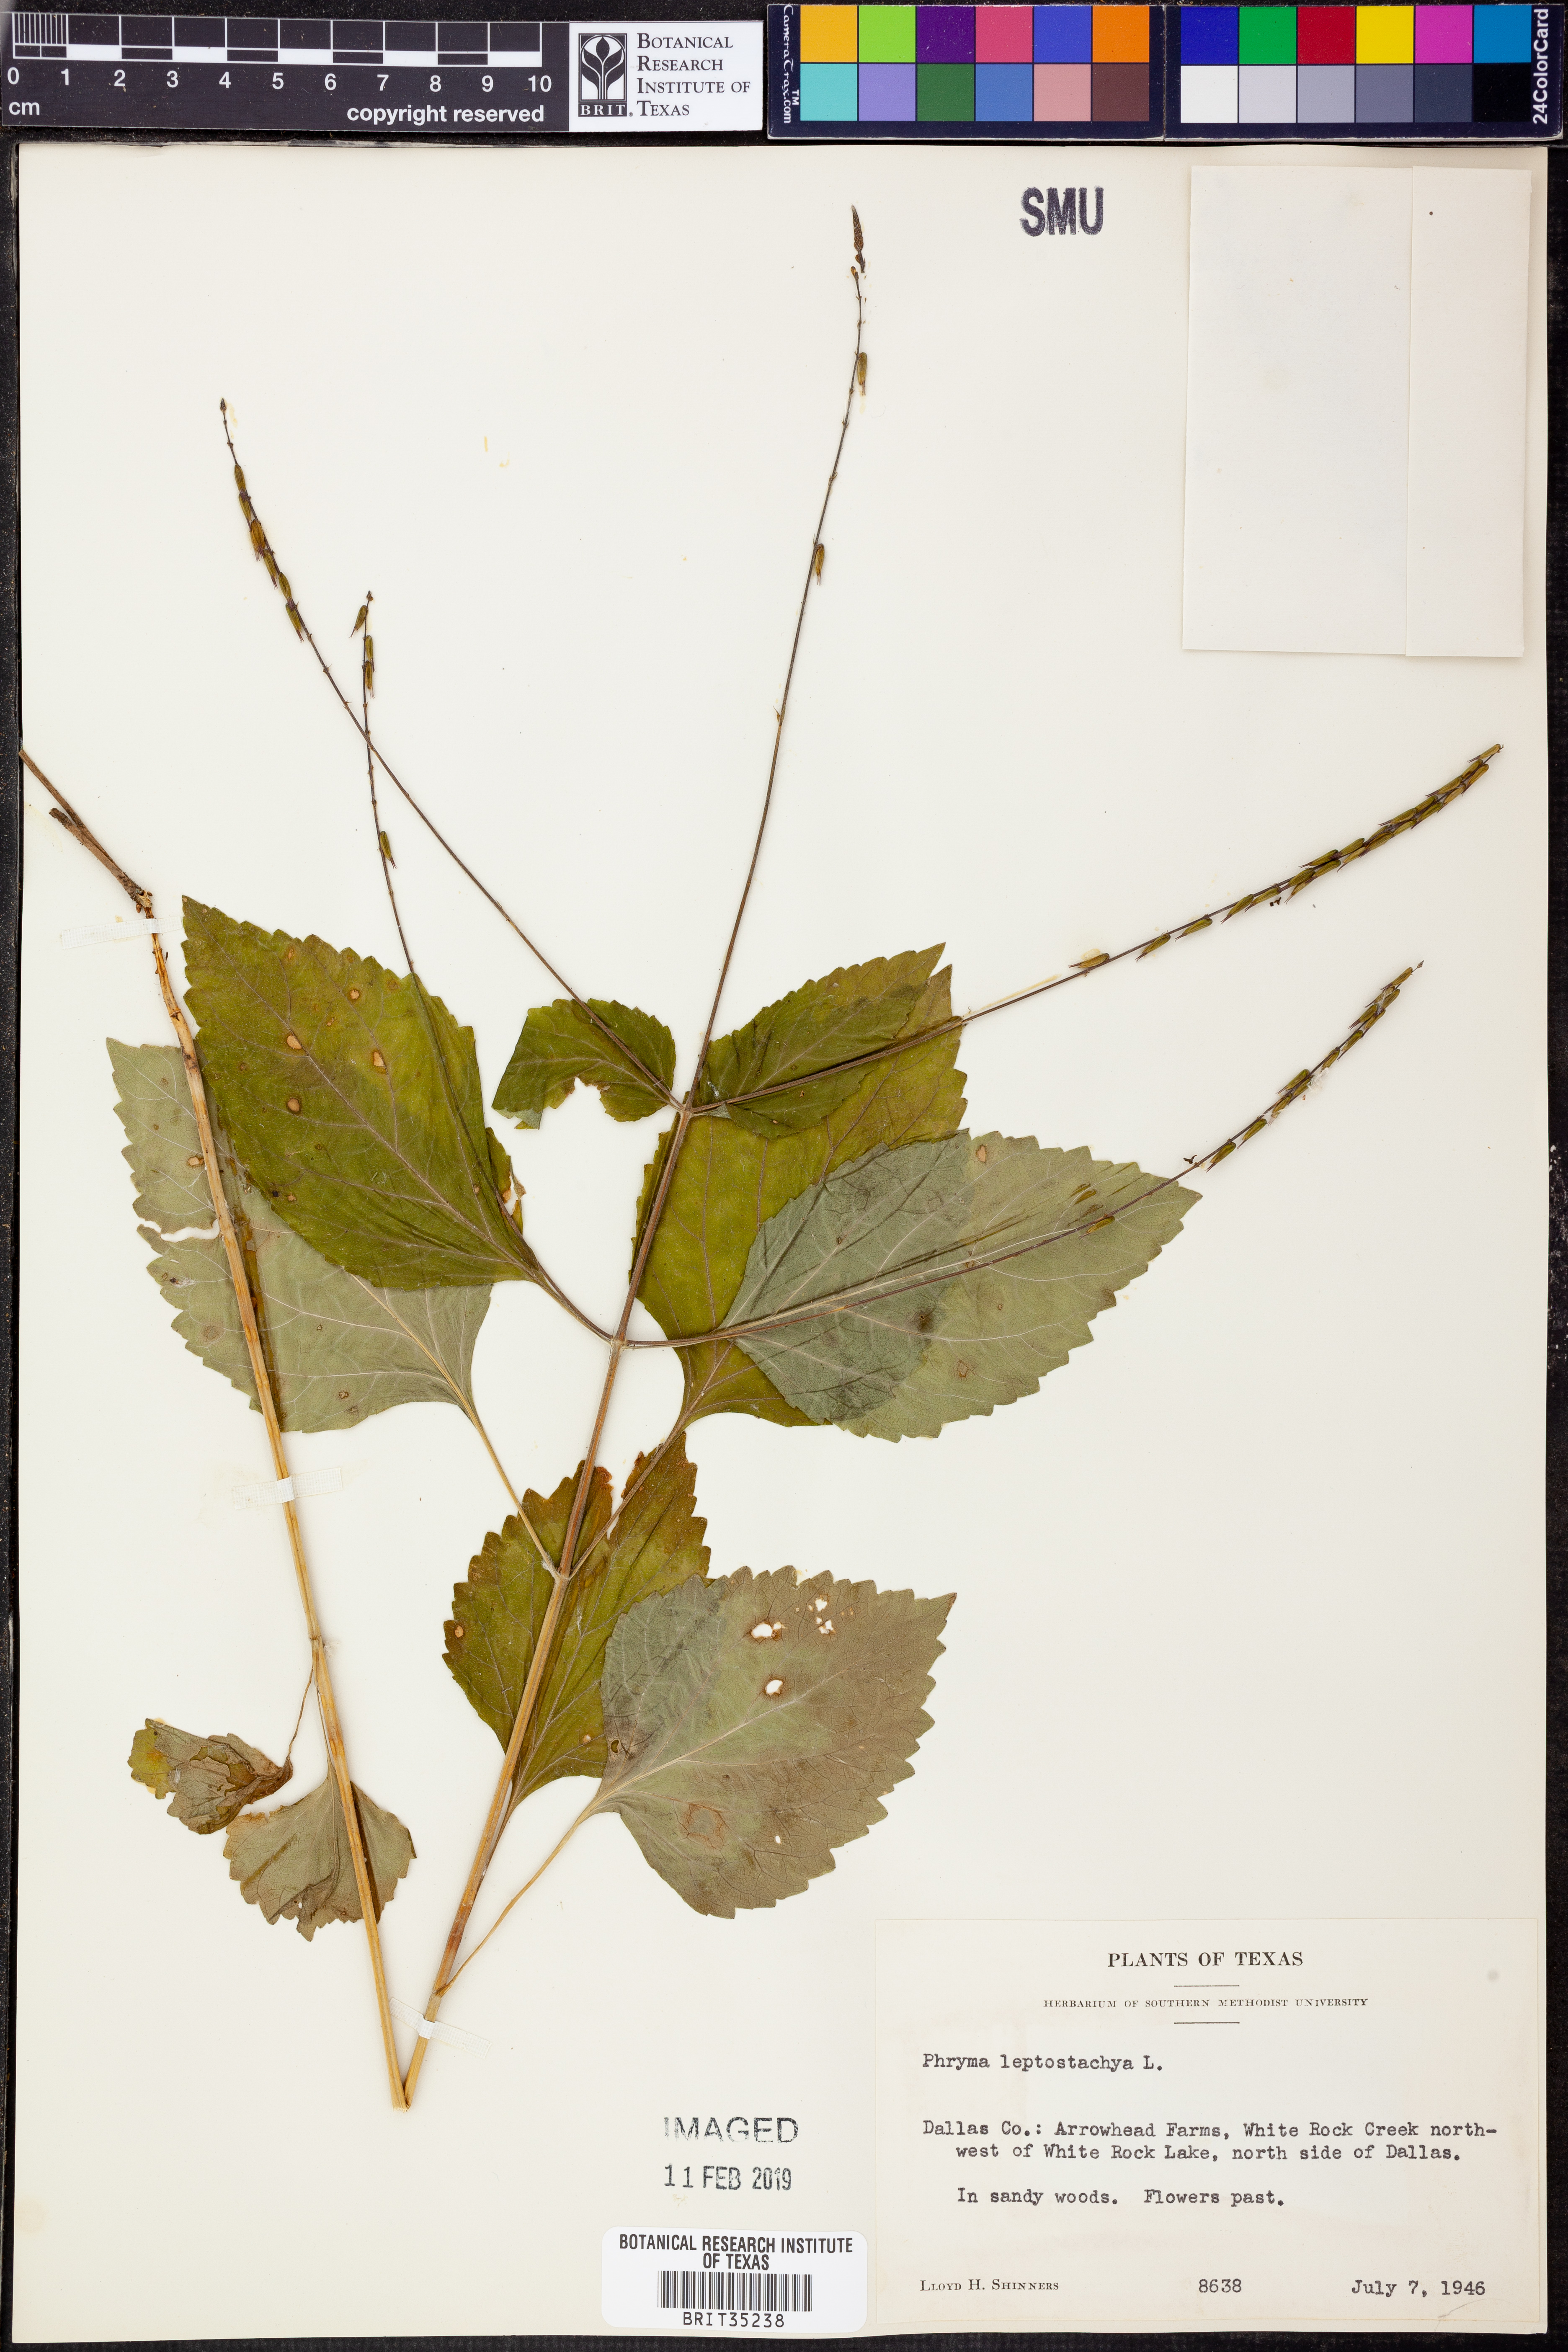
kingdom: Plantae
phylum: Tracheophyta
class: Magnoliopsida
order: Lamiales
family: Phrymaceae
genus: Phryma
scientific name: Phryma leptostachya
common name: American lopseed
